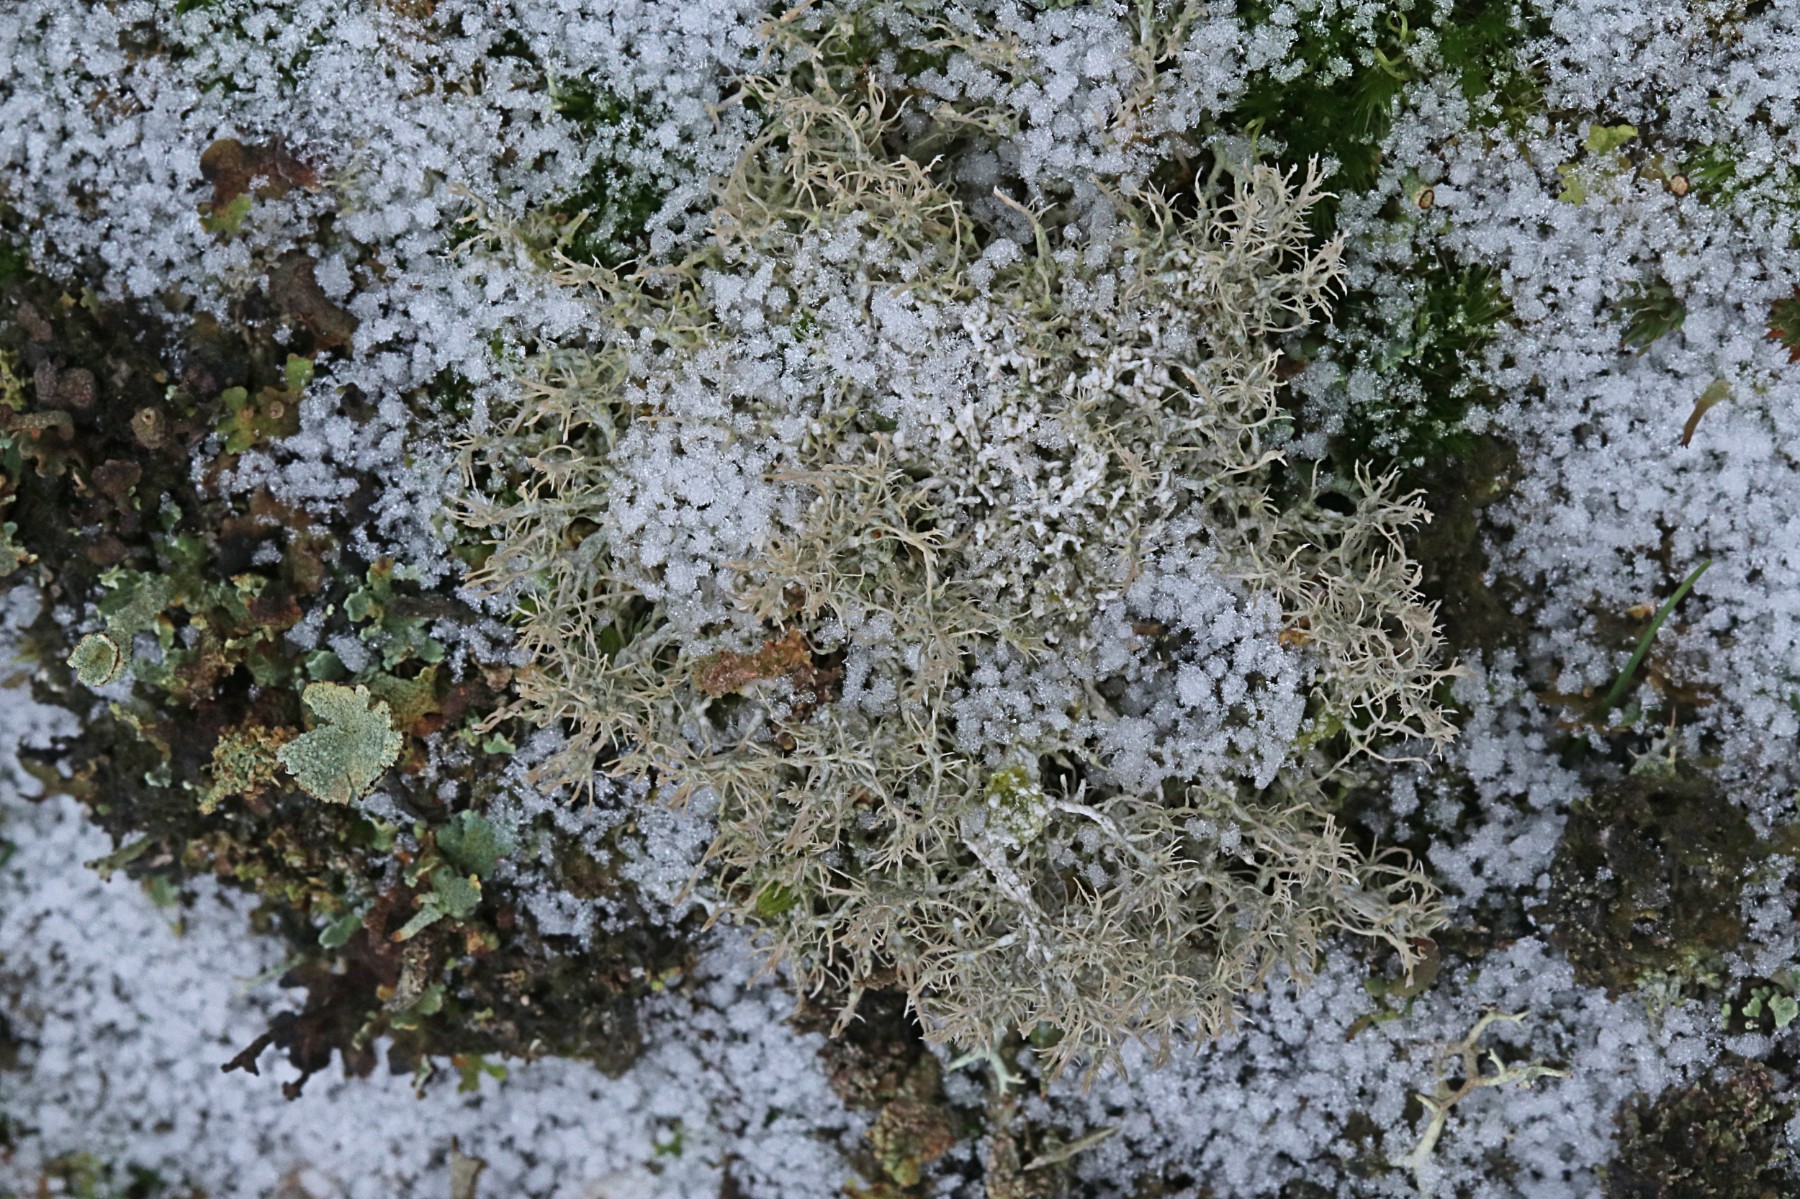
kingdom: Fungi
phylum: Ascomycota
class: Lecanoromycetes
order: Pertusariales
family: Ochrolechiaceae
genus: Ochrolechia
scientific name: Ochrolechia frigida
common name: fjeld-blegskivelav
